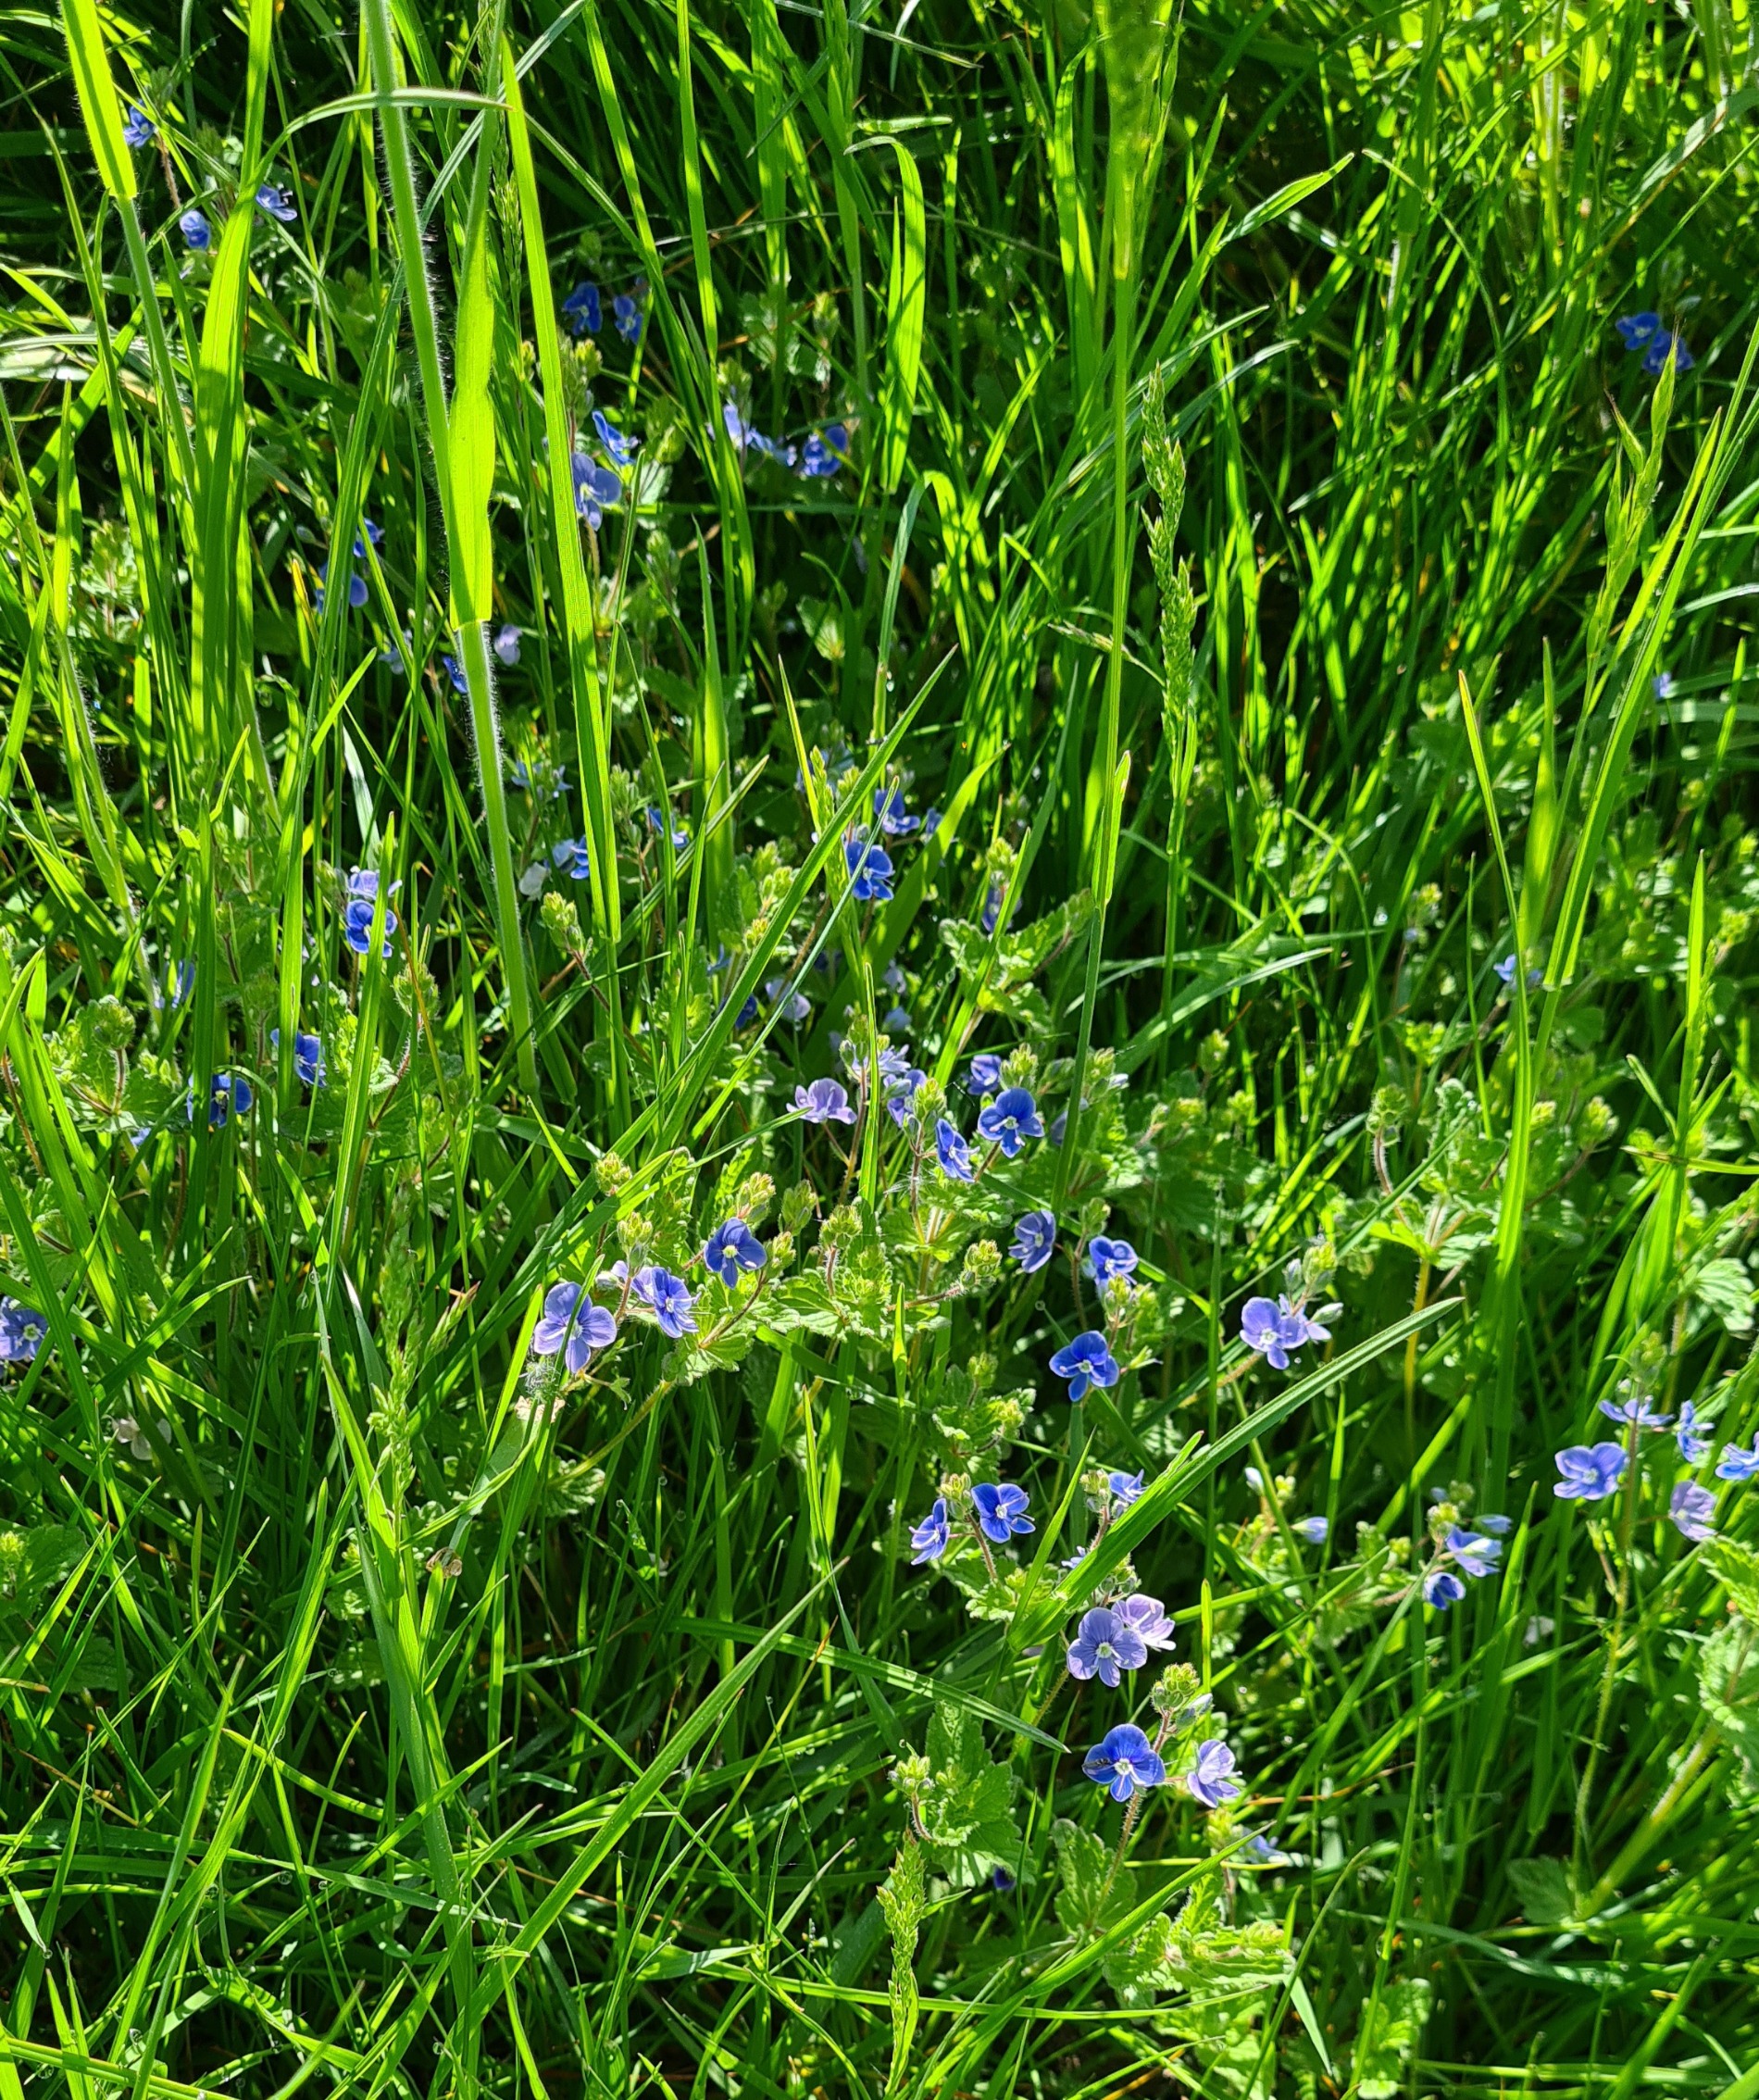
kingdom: Plantae
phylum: Tracheophyta
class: Magnoliopsida
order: Lamiales
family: Plantaginaceae
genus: Veronica
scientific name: Veronica chamaedrys
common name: Tveskægget ærenpris
